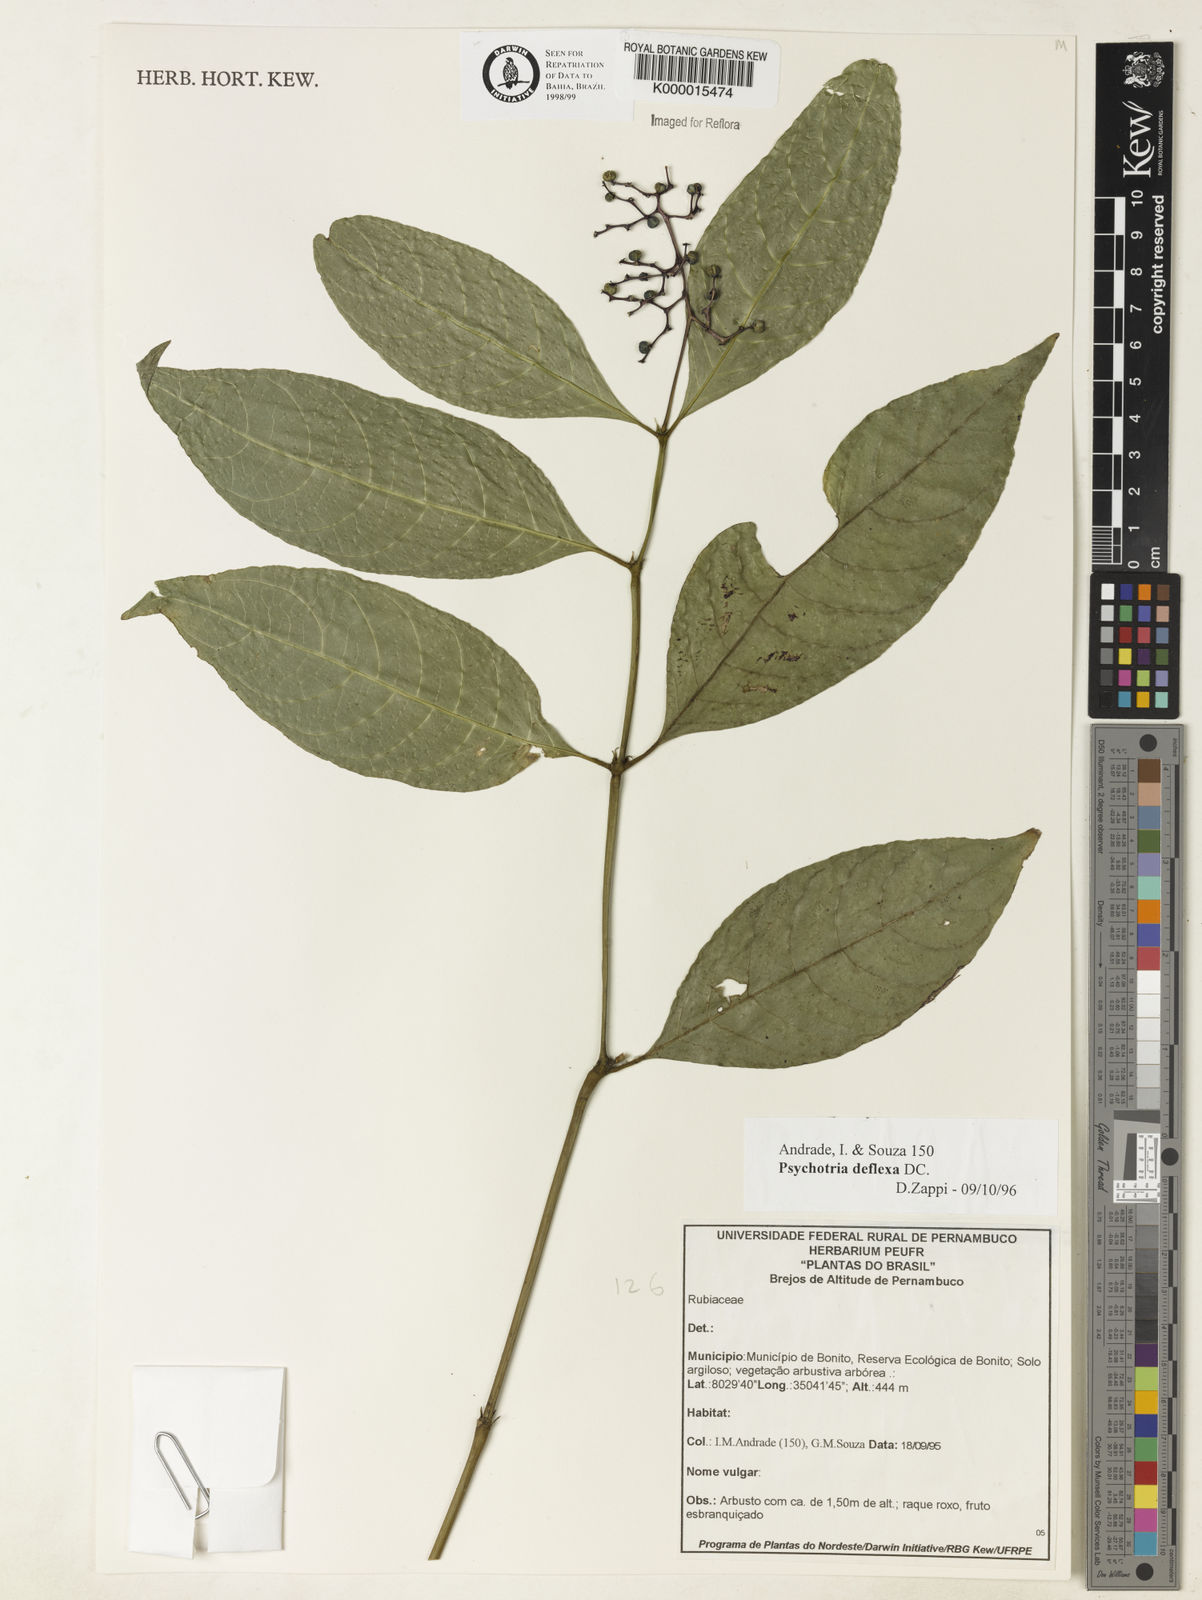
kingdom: Plantae
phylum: Tracheophyta
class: Magnoliopsida
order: Gentianales
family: Rubiaceae
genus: Palicourea
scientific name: Palicourea deflexa
